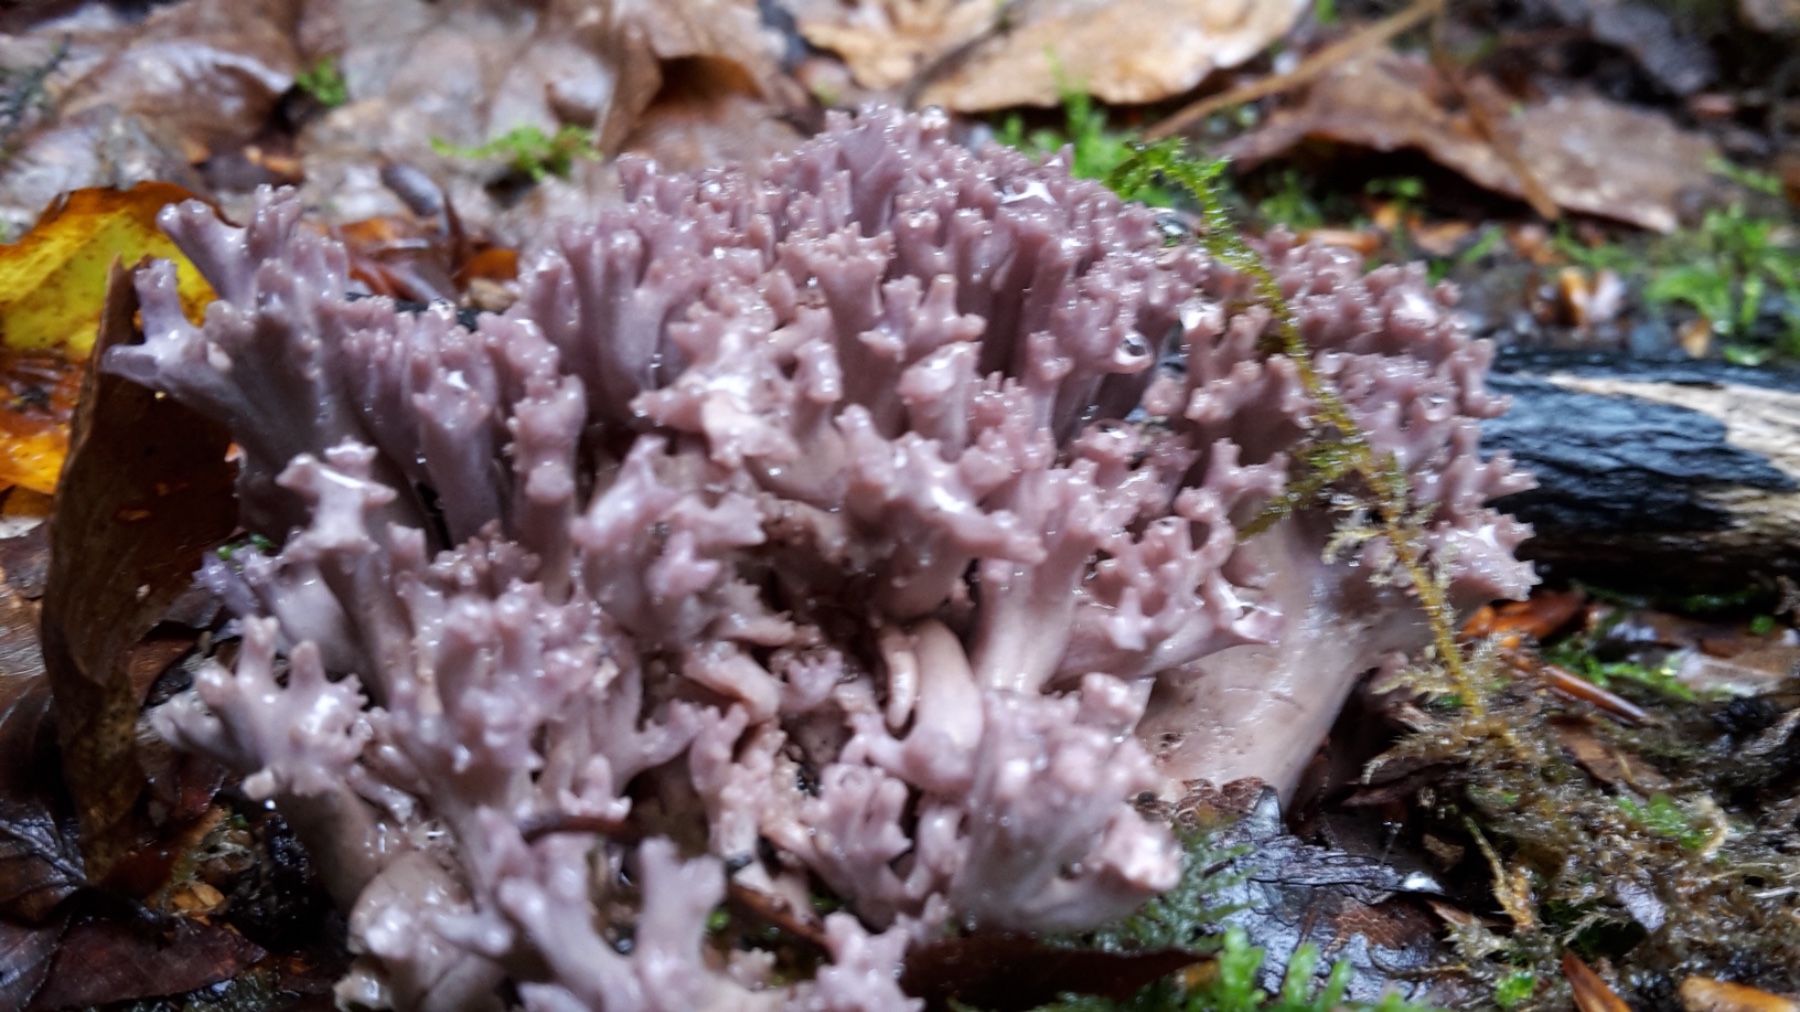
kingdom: Fungi
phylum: Basidiomycota
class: Agaricomycetes
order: Gomphales
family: Gomphaceae
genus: Ramaria
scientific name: Ramaria fumigata
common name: violet koralsvamp
